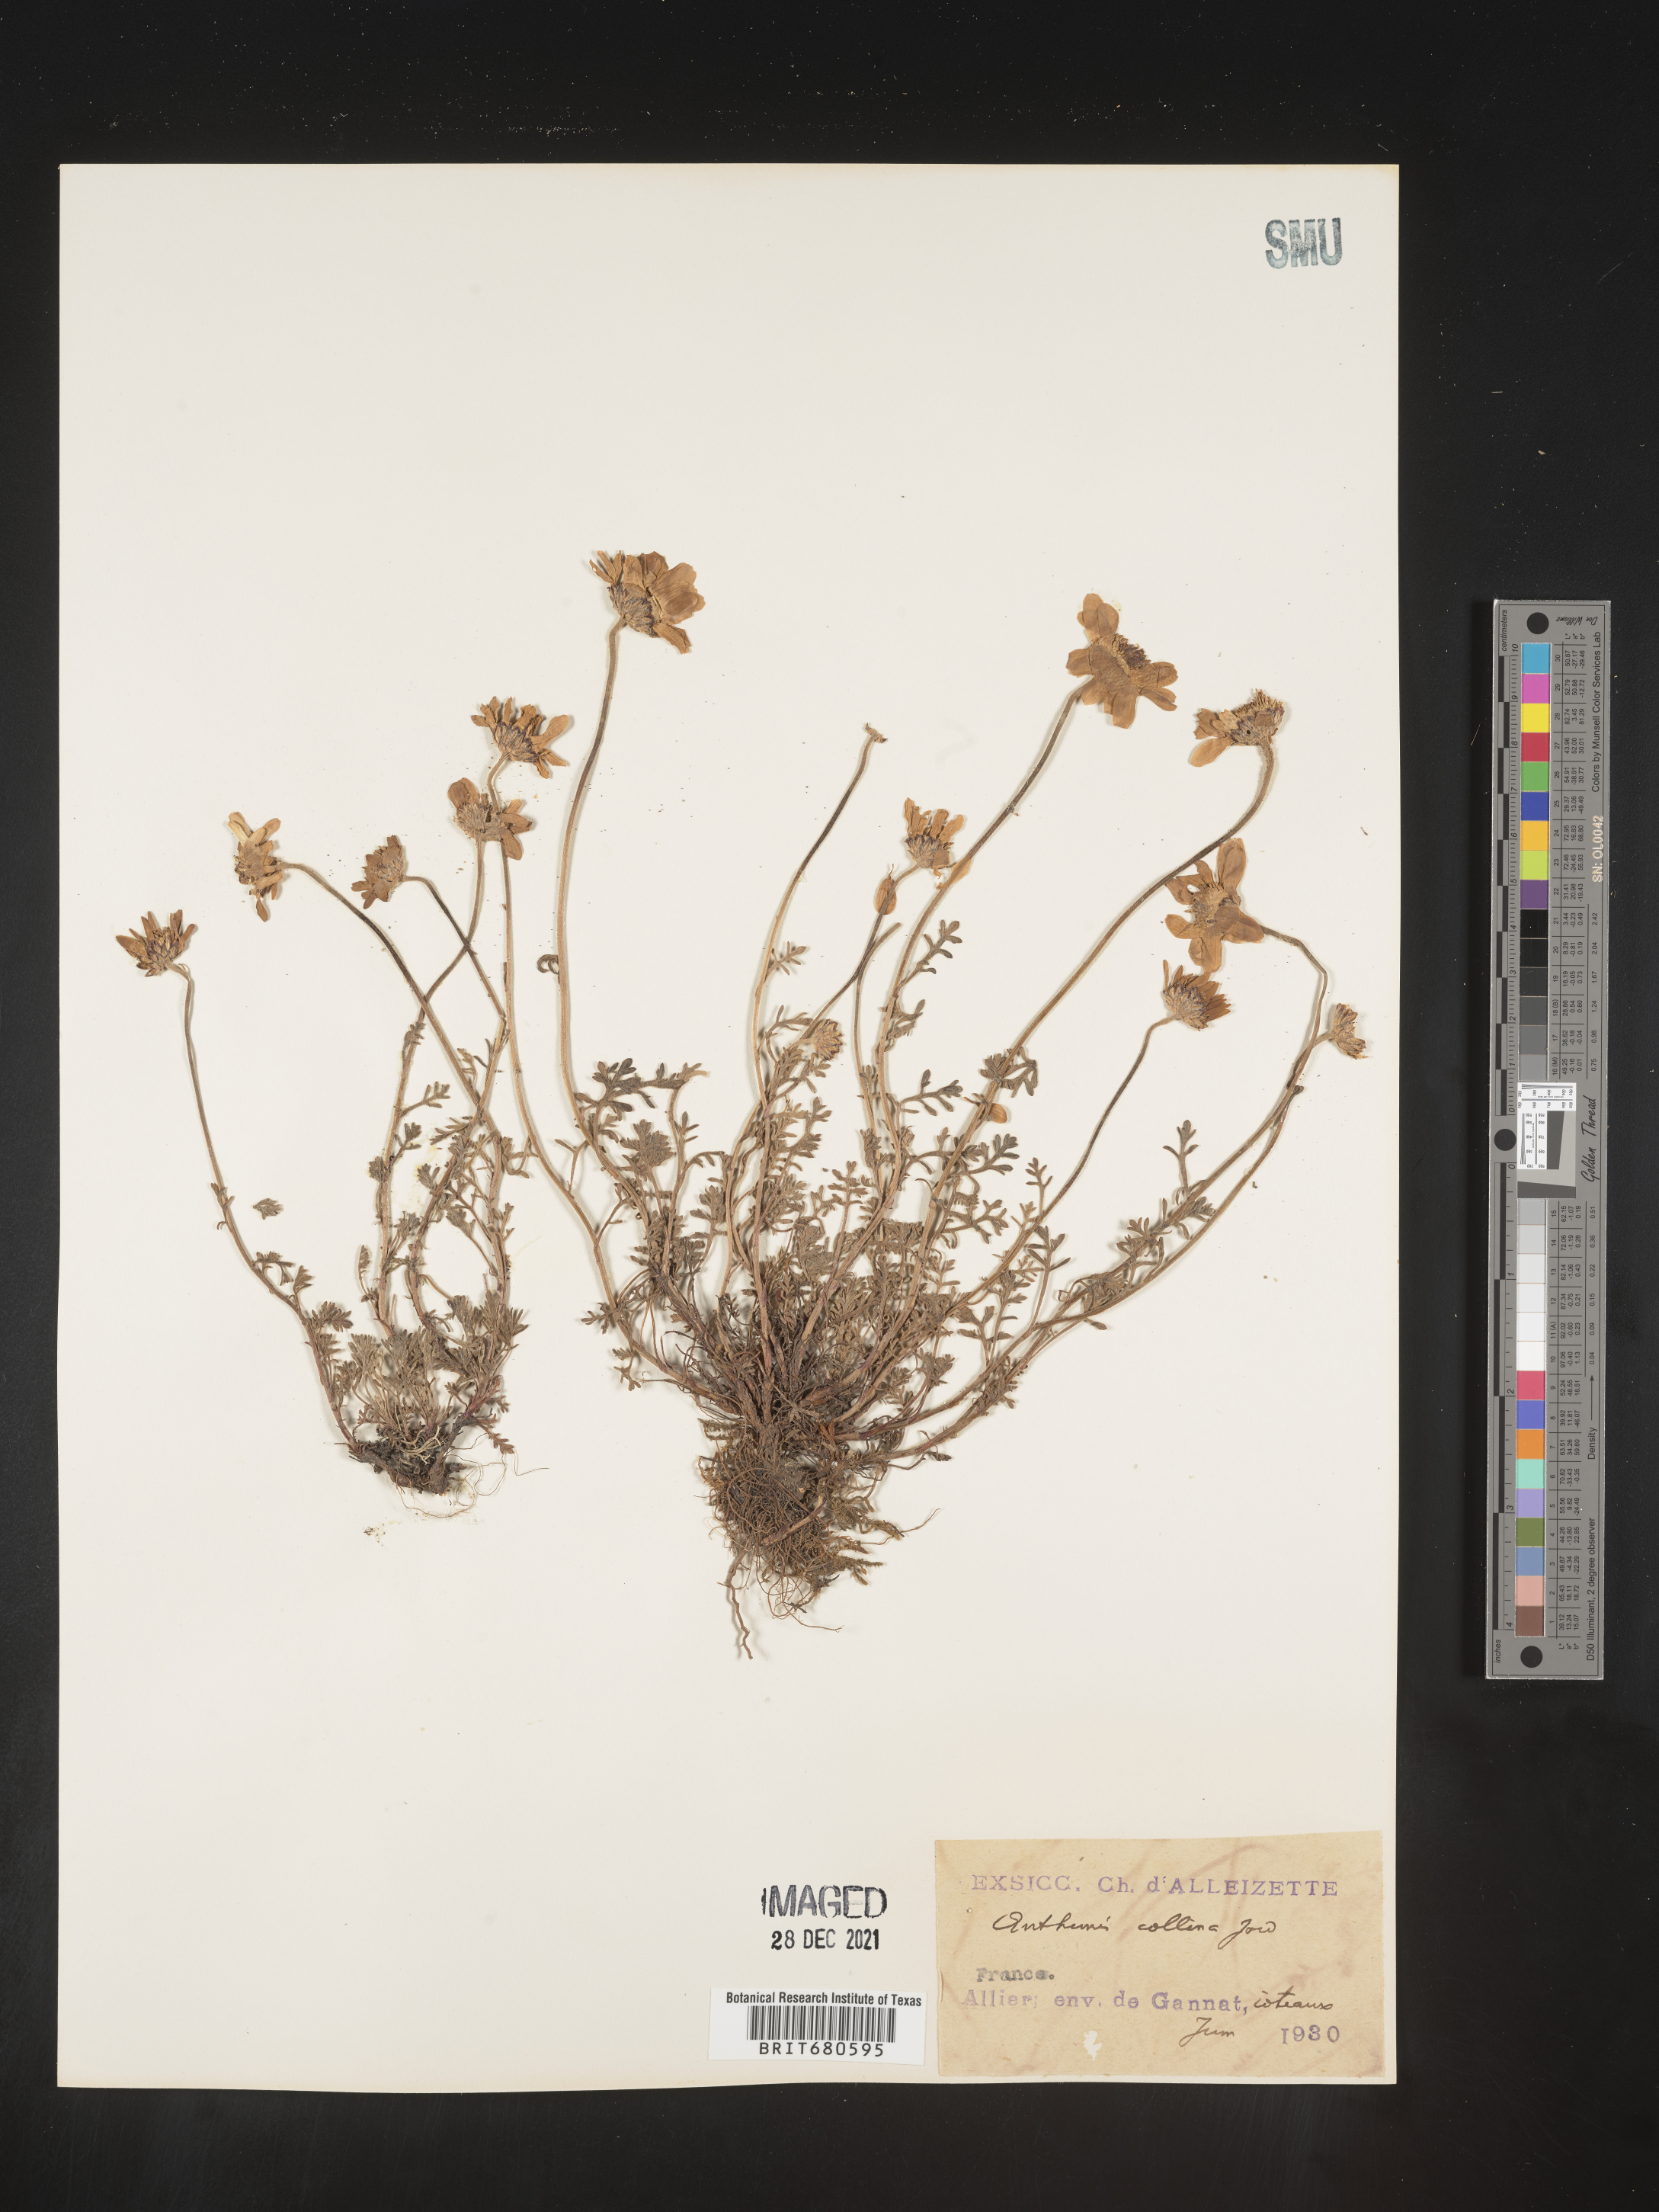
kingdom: Plantae
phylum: Tracheophyta
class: Magnoliopsida
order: Asterales
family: Asteraceae
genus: Anthemis
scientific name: Anthemis
